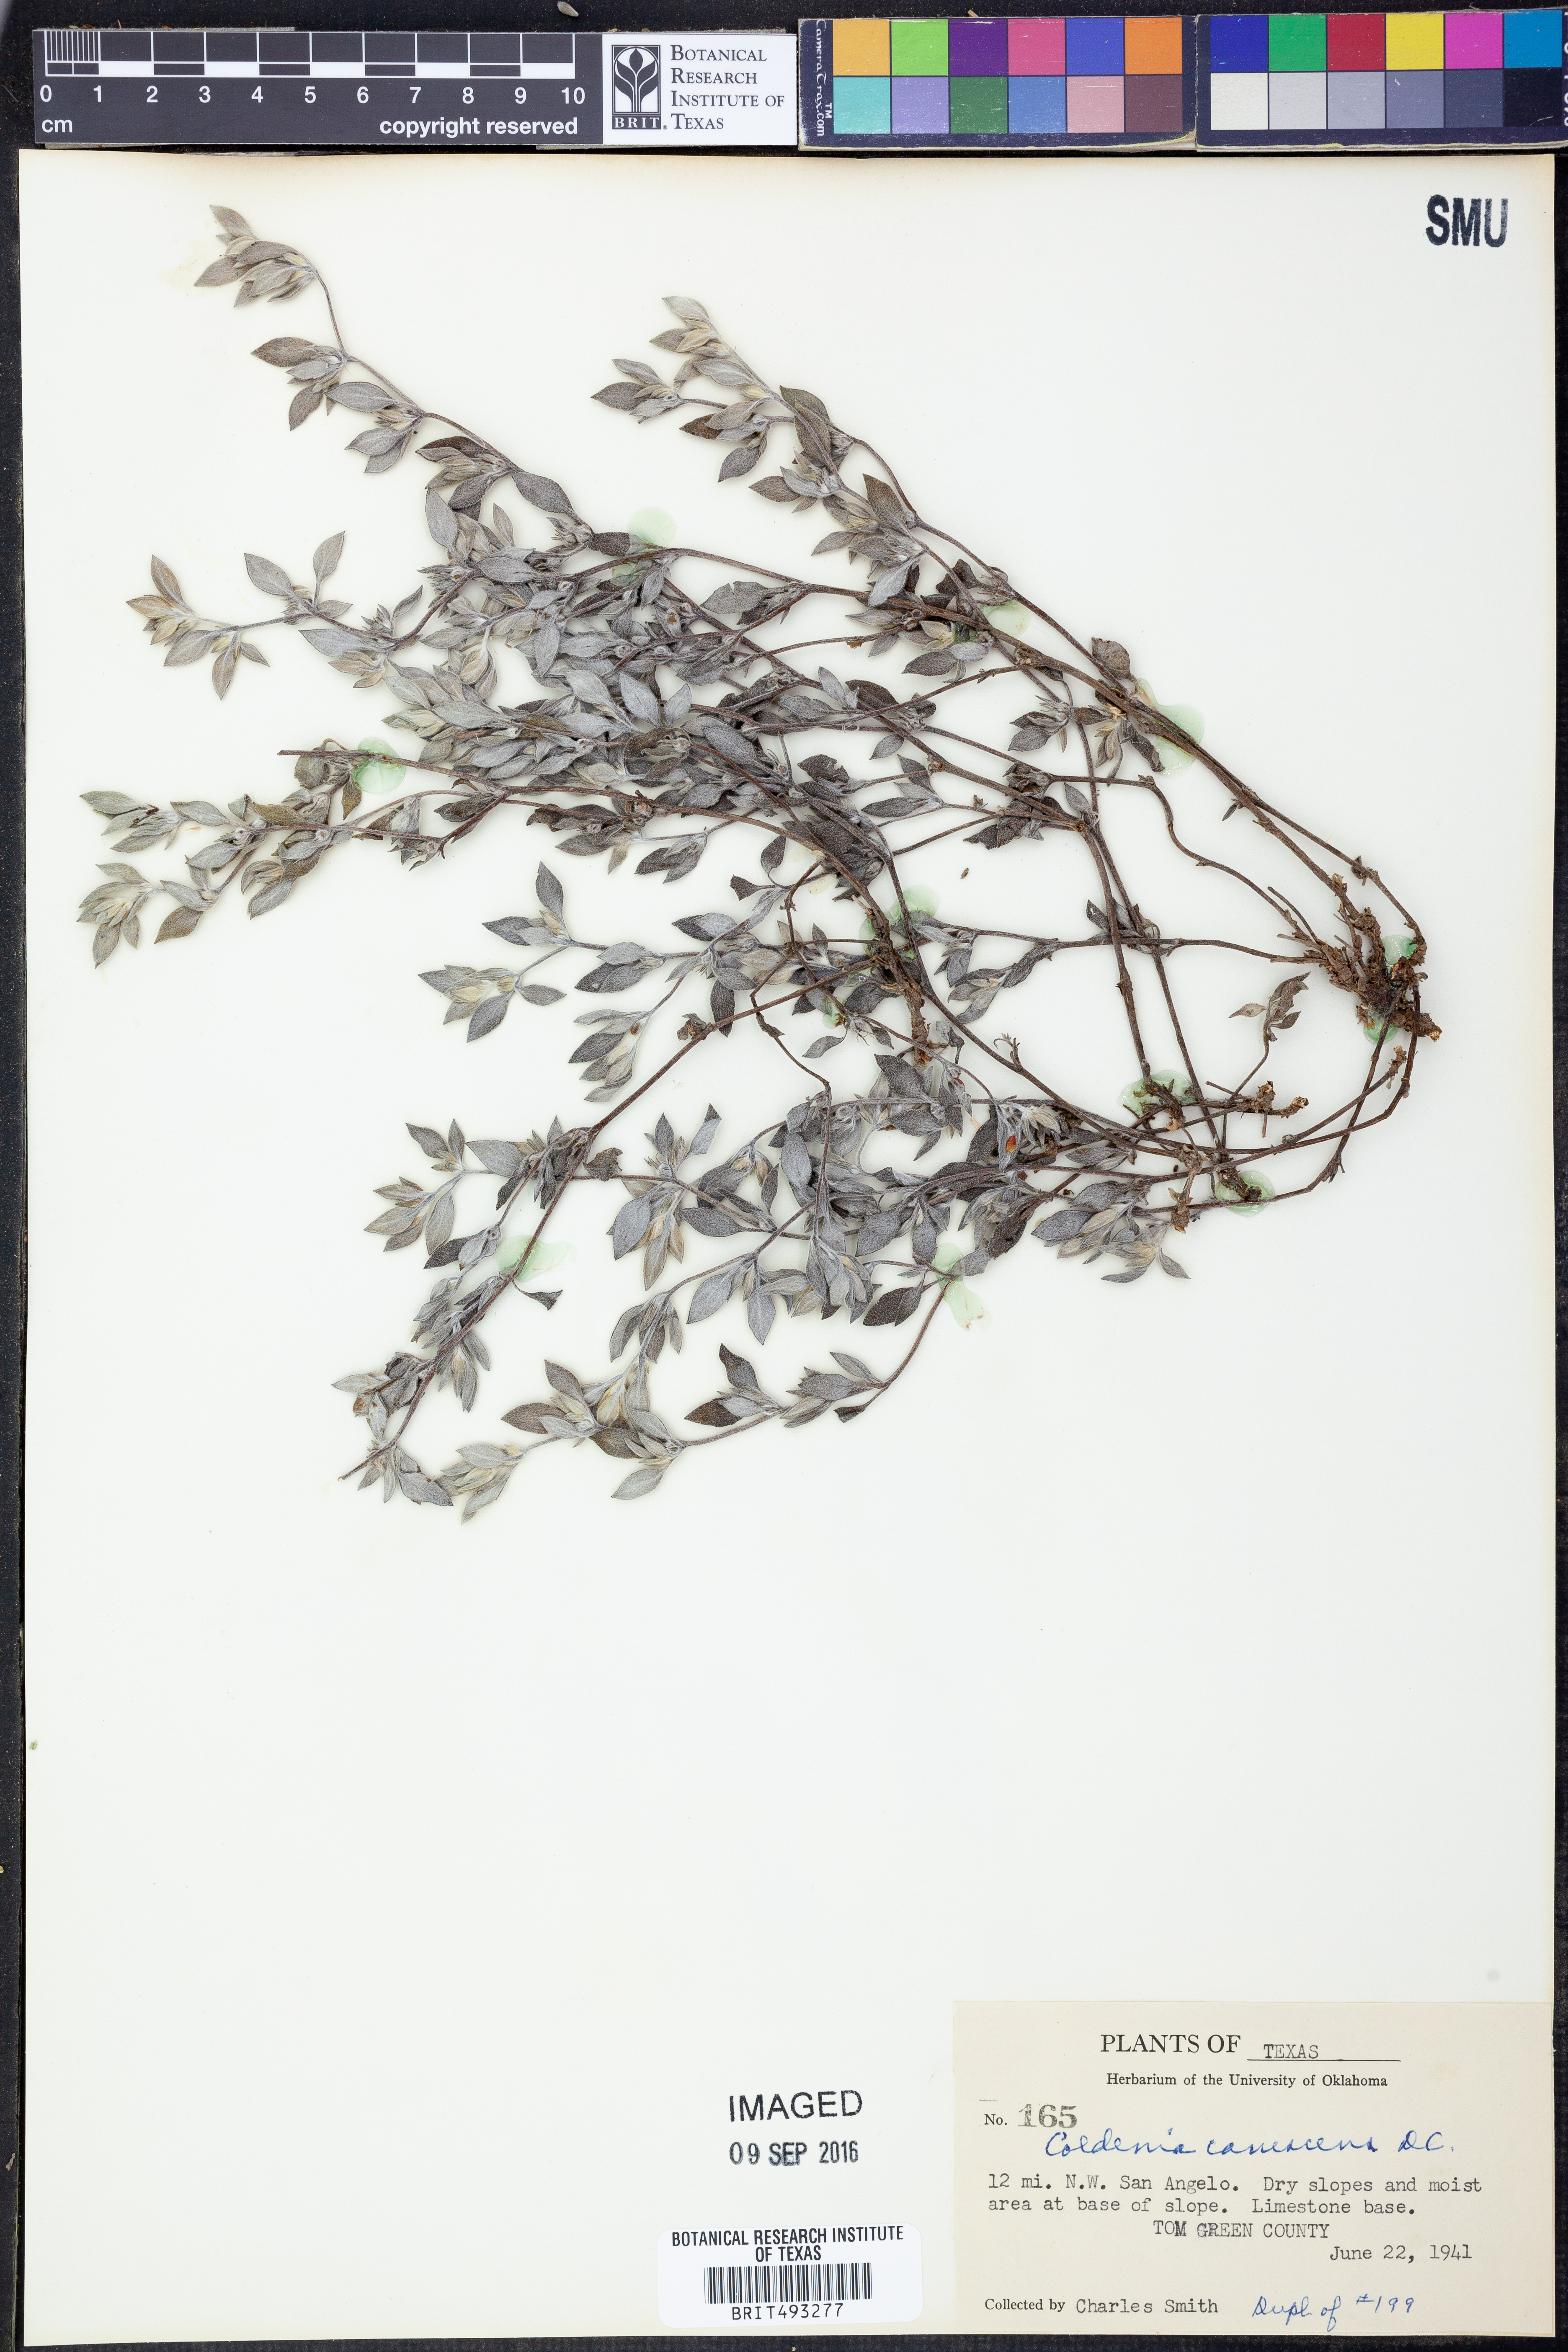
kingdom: Plantae
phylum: Tracheophyta
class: Magnoliopsida
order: Boraginales
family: Ehretiaceae
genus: Tiquilia
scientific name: Tiquilia canescens
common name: Hairy tiquilia
